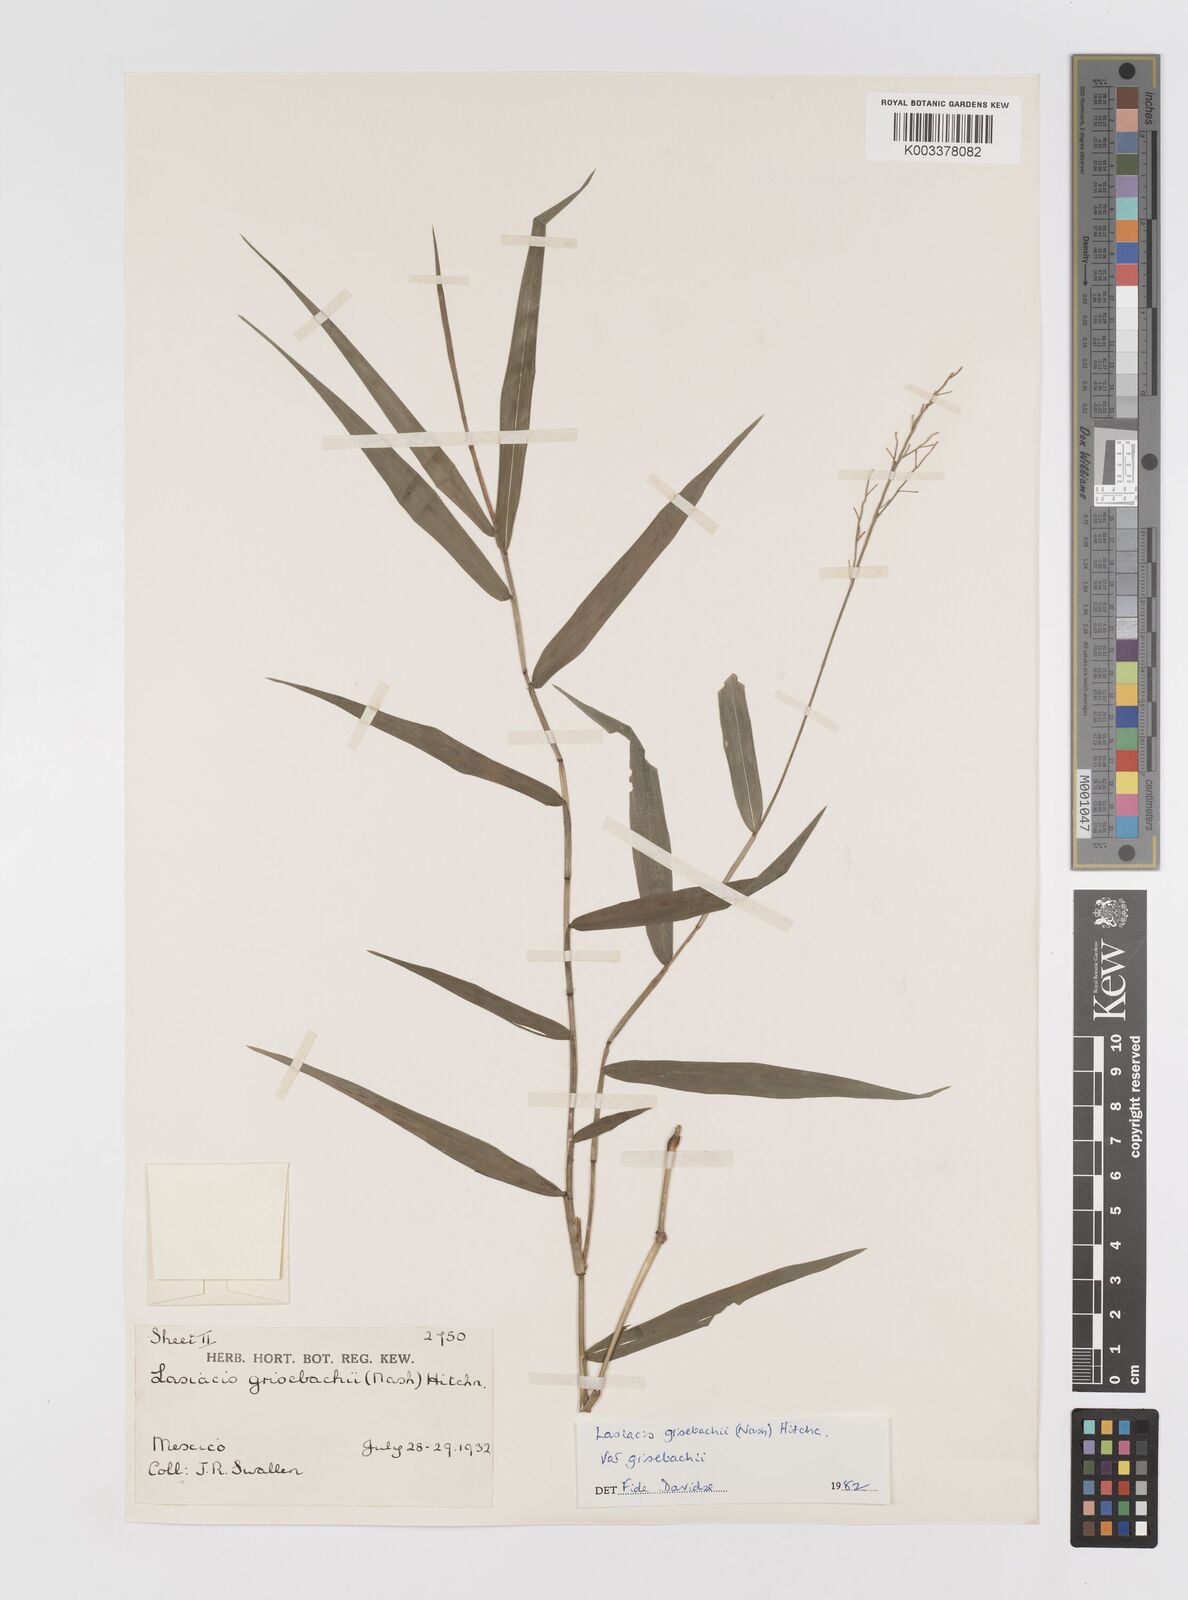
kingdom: Plantae
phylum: Tracheophyta
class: Liliopsida
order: Poales
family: Poaceae
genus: Lasiacis
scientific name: Lasiacis grisebachii
